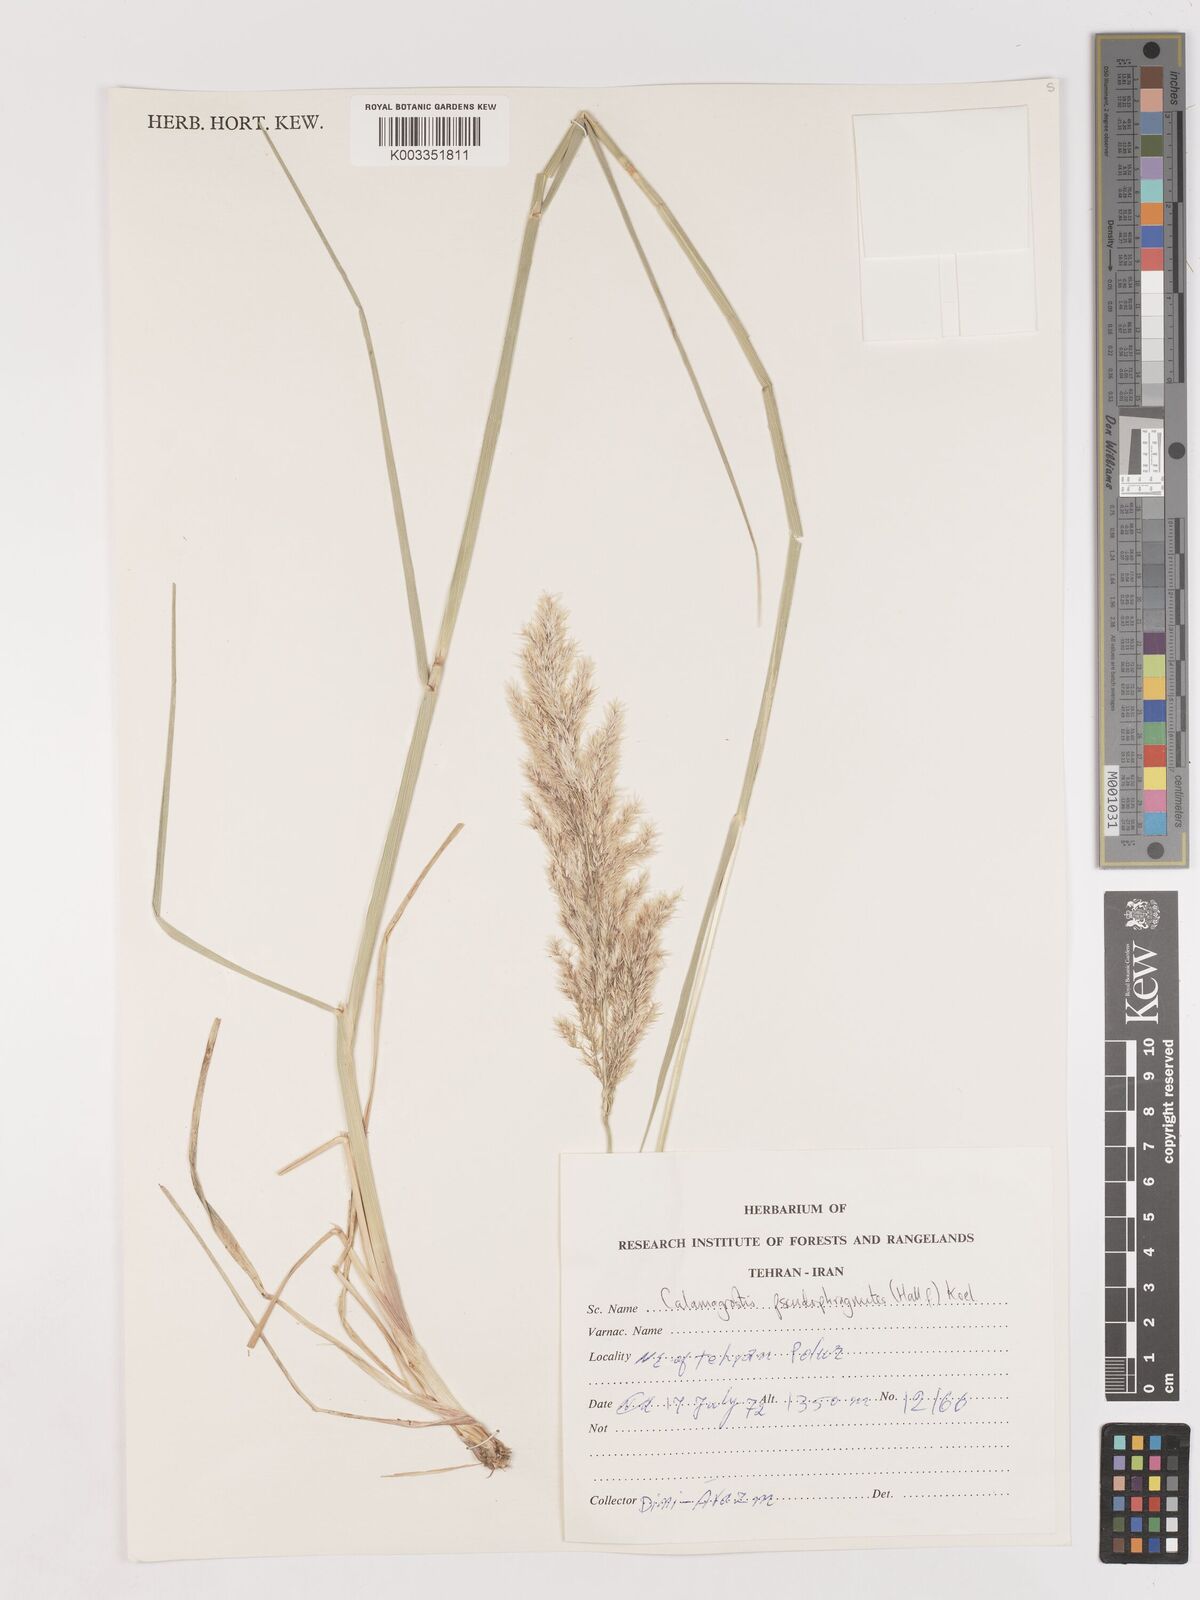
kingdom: Plantae
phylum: Tracheophyta
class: Liliopsida
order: Poales
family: Poaceae
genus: Calamagrostis
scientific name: Calamagrostis pseudophragmites
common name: Coastal small-reed
